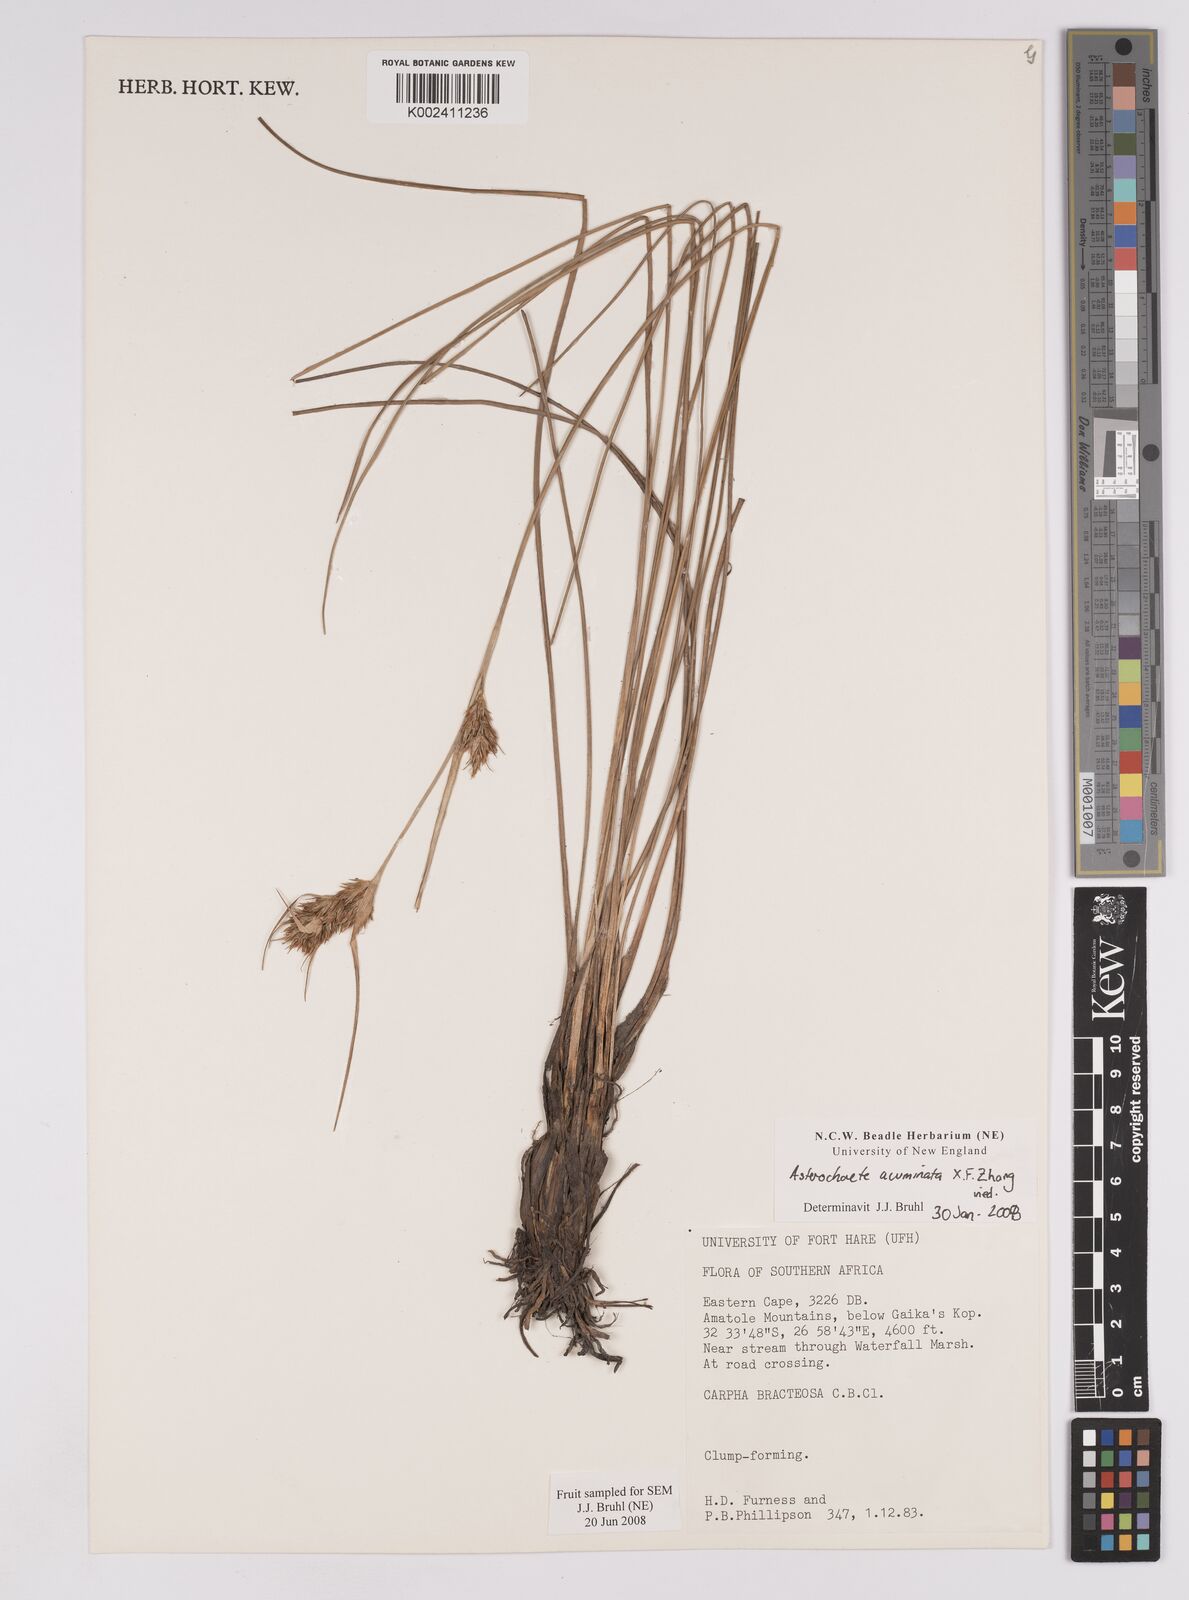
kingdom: Plantae
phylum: Tracheophyta
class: Liliopsida
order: Poales
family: Cyperaceae
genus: Carpha
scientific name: Carpha
